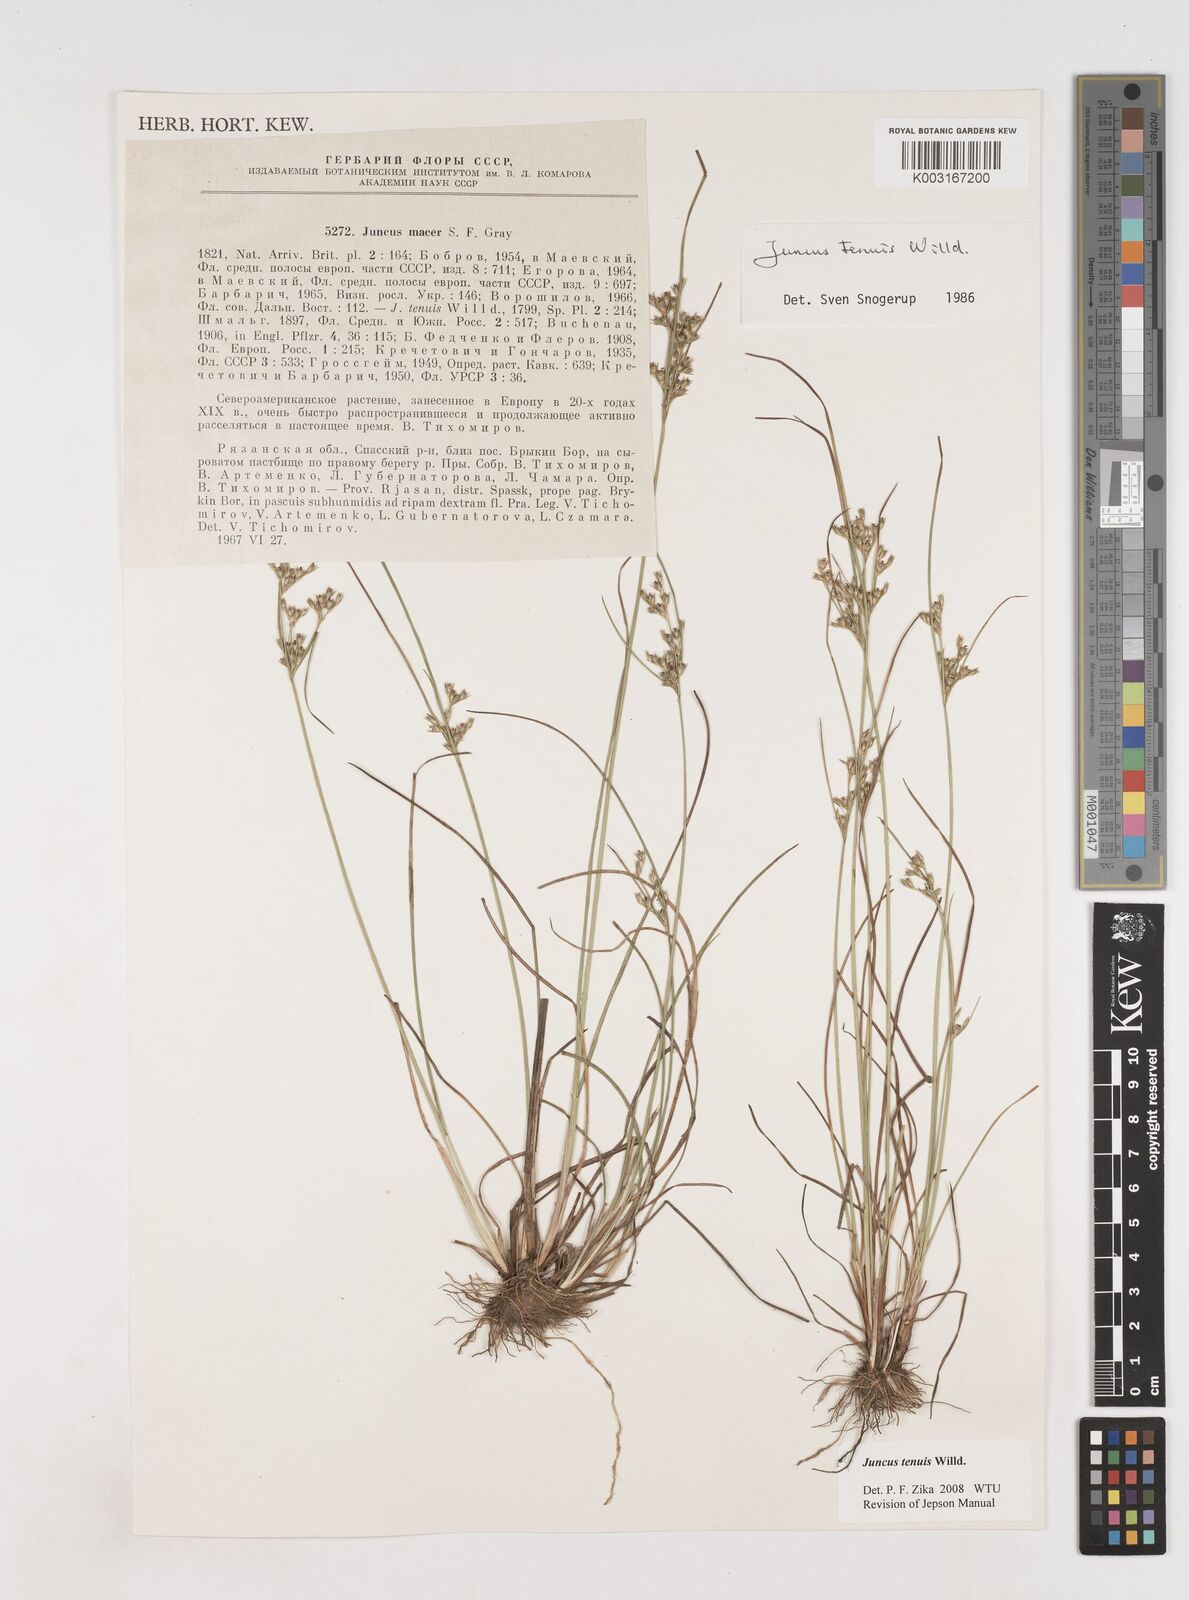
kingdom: Plantae
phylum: Tracheophyta
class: Liliopsida
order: Poales
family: Juncaceae
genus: Juncus
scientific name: Juncus tenuis
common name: Slender rush
